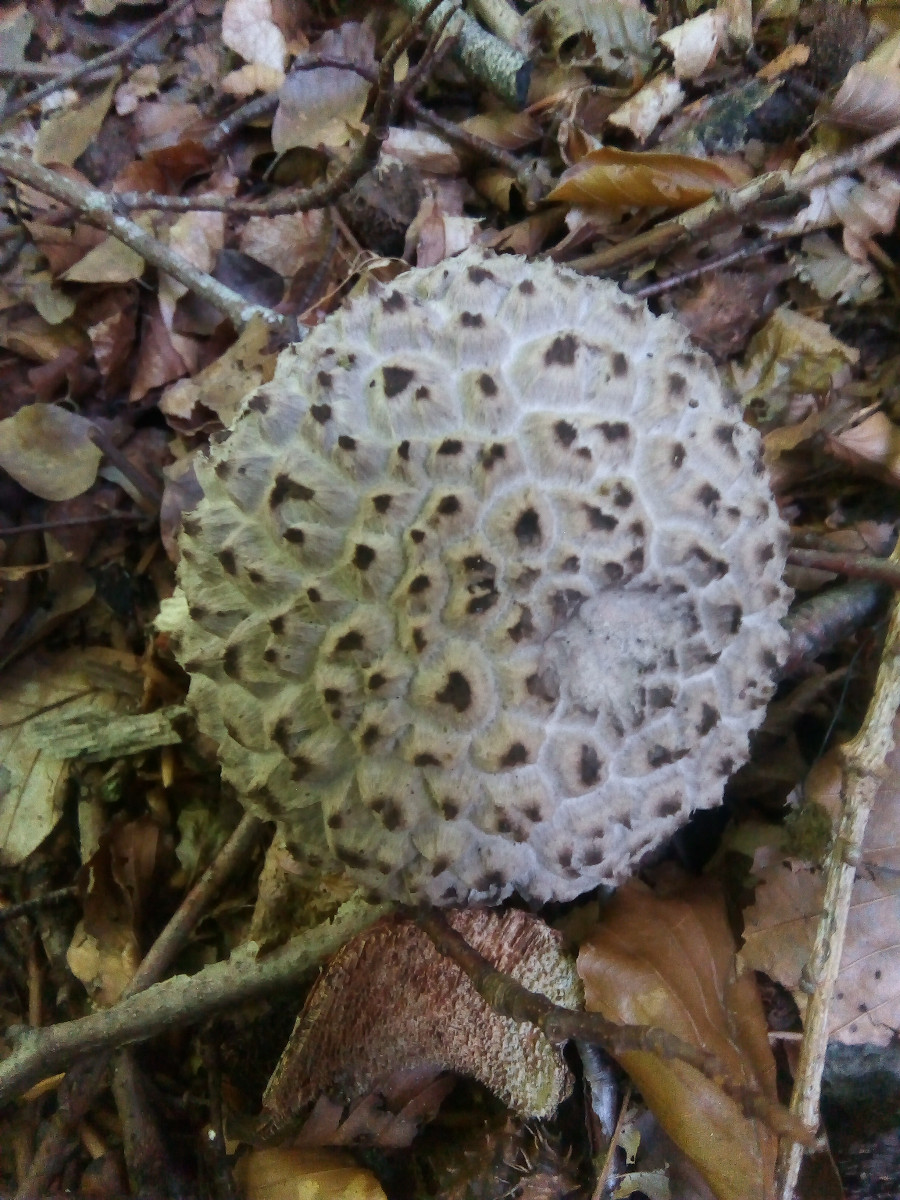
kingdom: Fungi
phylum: Basidiomycota
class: Agaricomycetes
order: Boletales
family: Boletaceae
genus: Strobilomyces
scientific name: Strobilomyces strobilaceus
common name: koglerørhat
